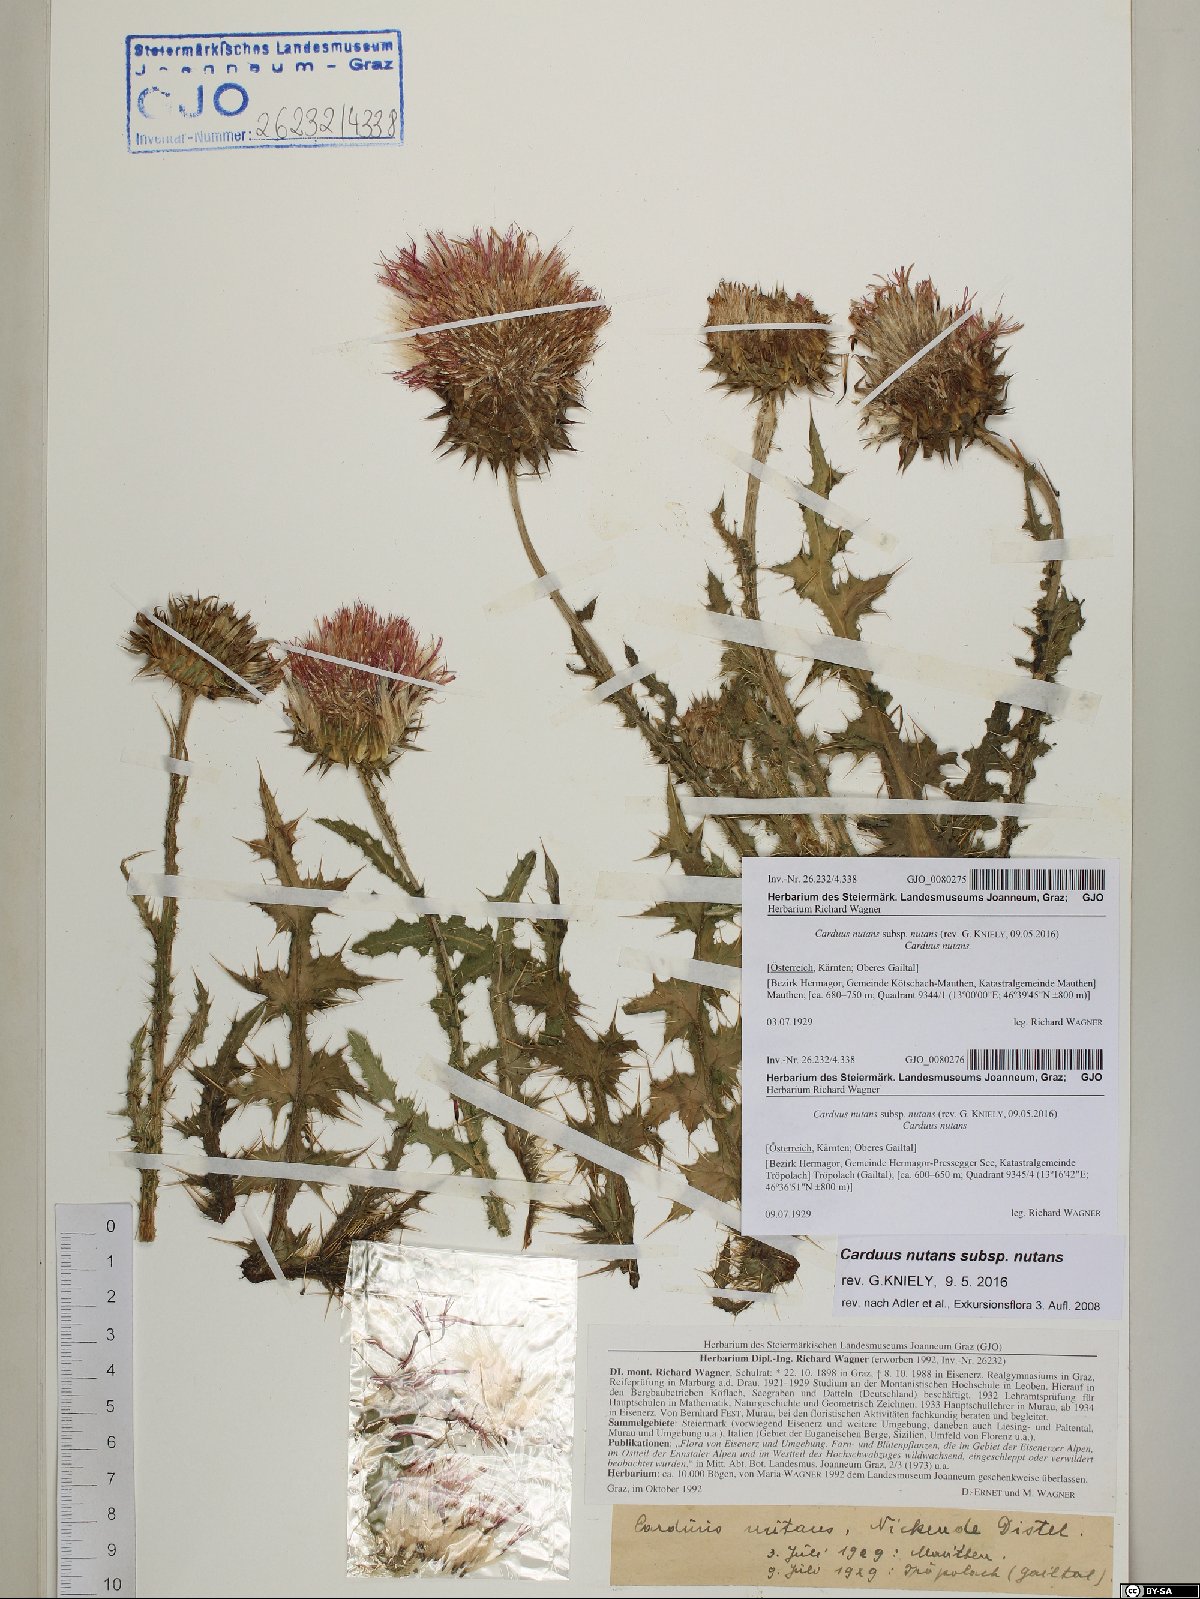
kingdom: Plantae
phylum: Tracheophyta
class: Magnoliopsida
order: Asterales
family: Asteraceae
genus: Carduus
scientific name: Carduus nutans
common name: Musk thistle
